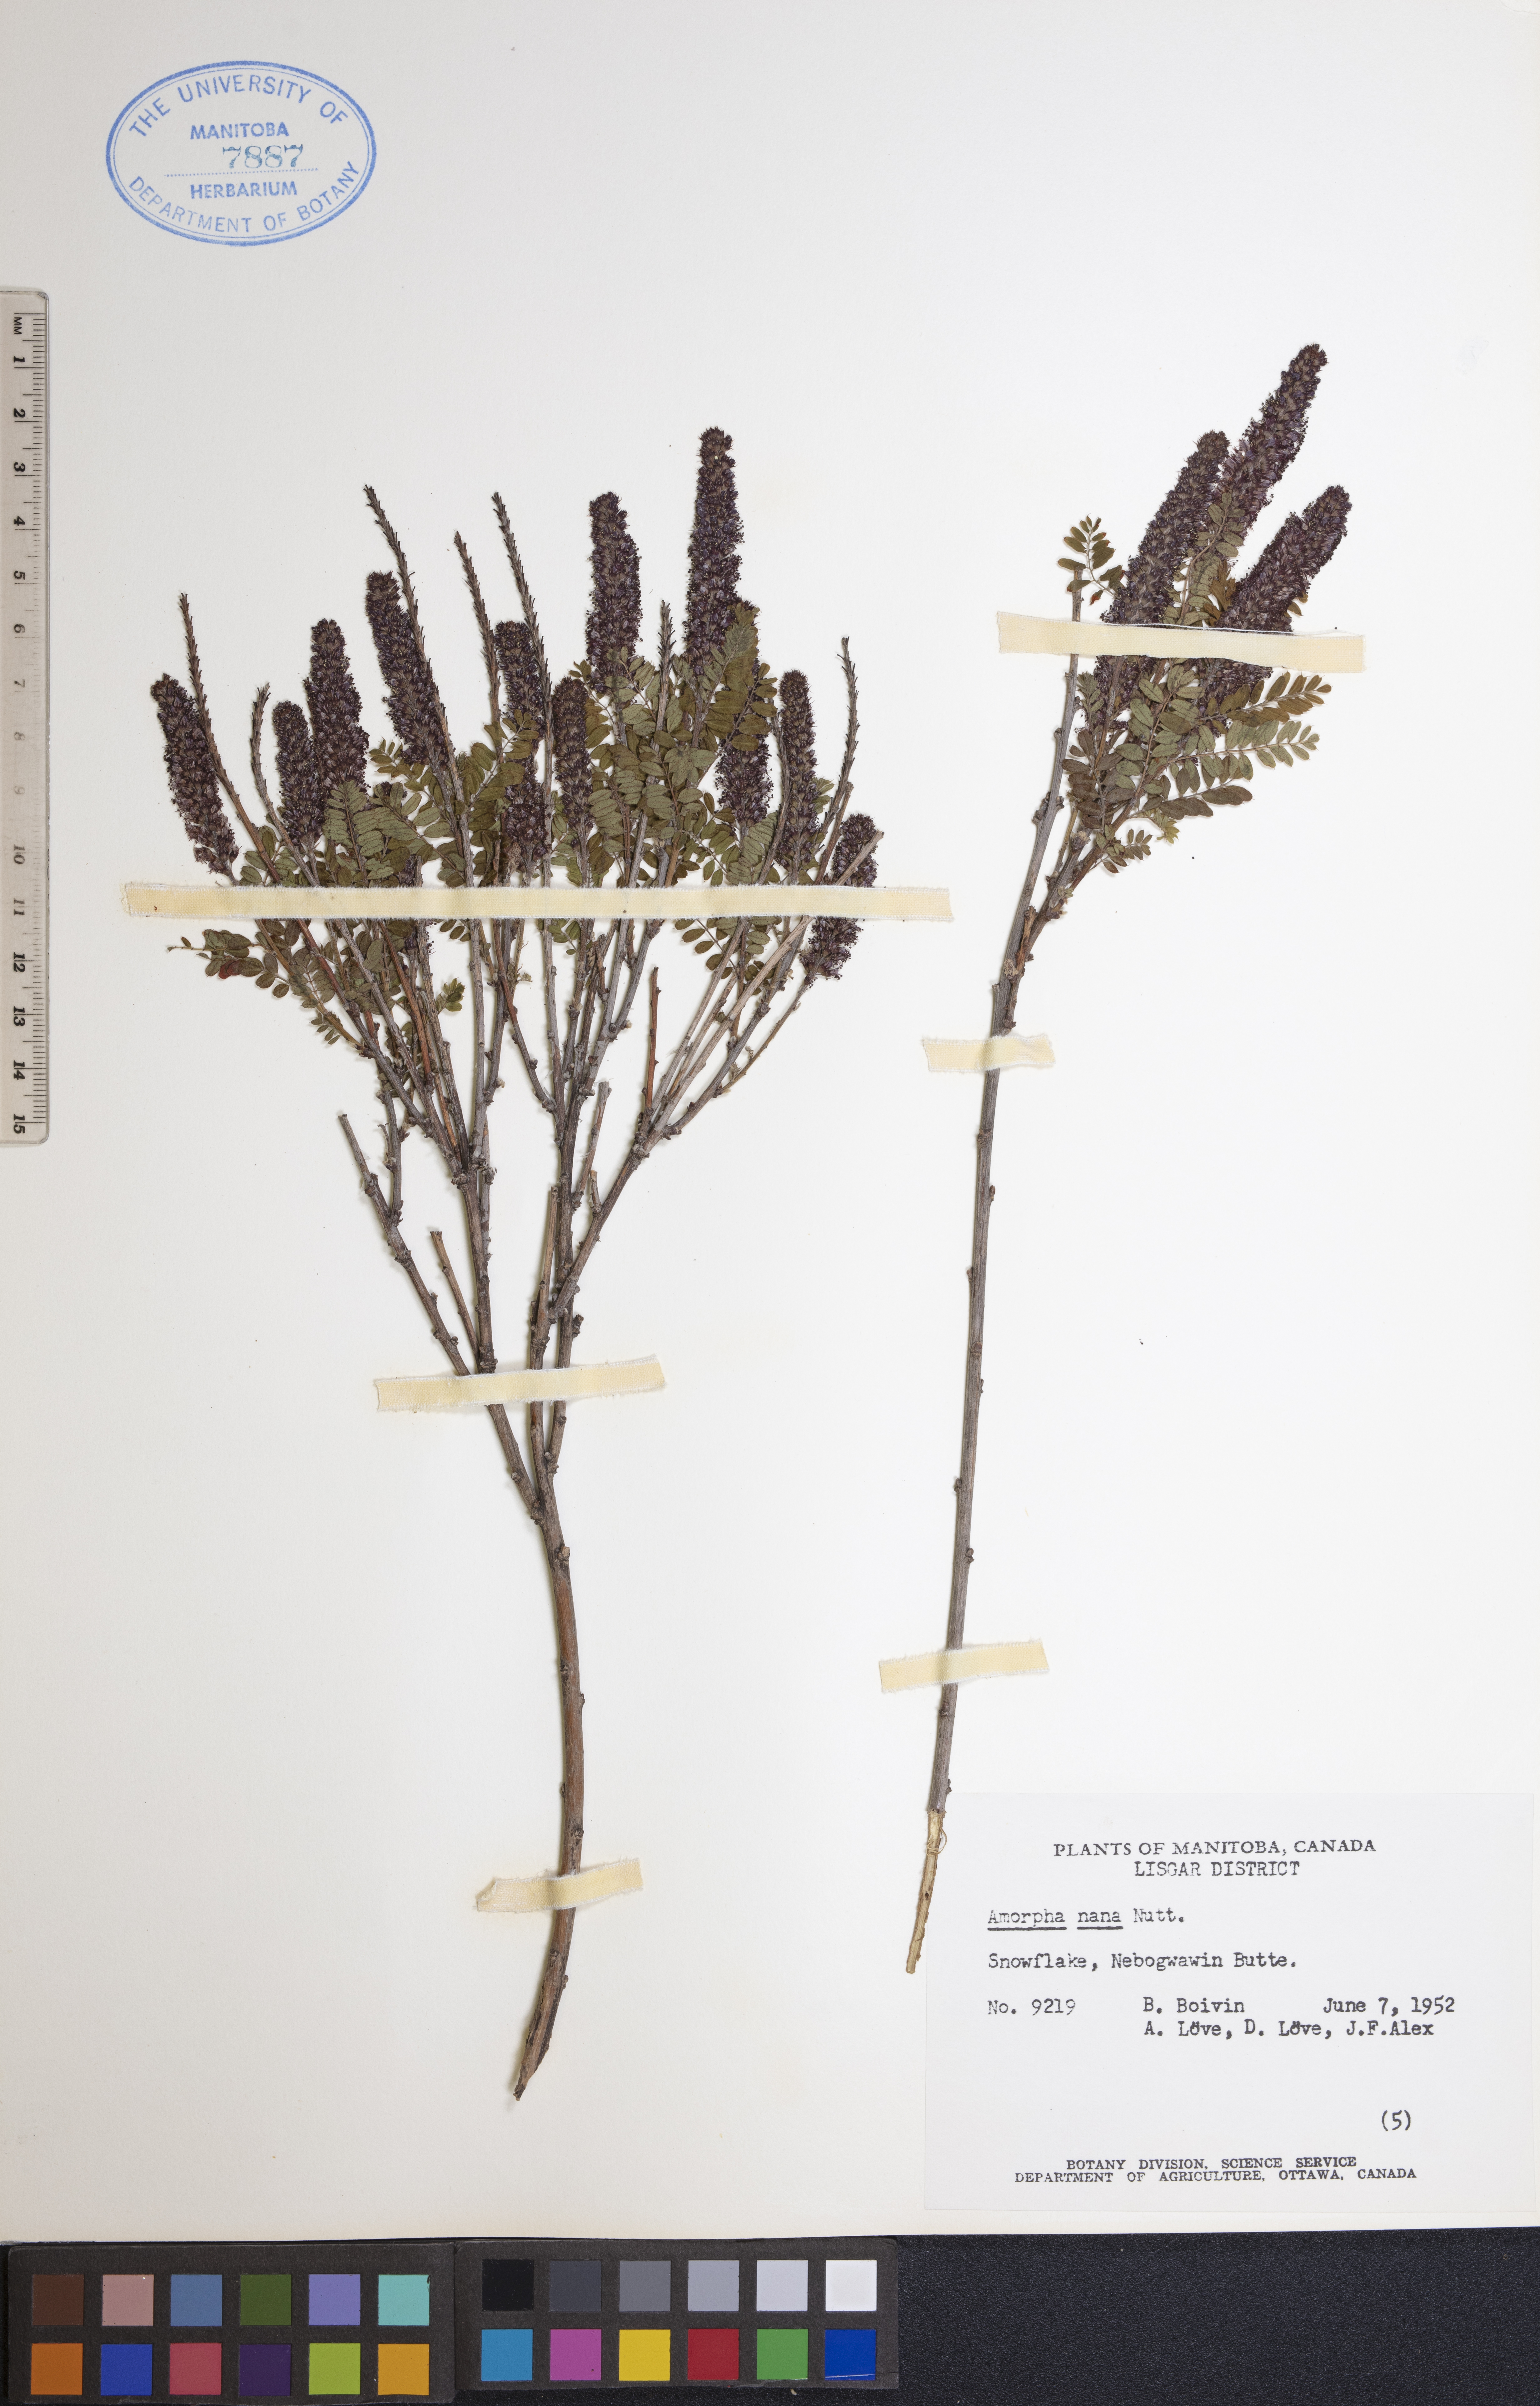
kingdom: Plantae
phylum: Tracheophyta
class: Magnoliopsida
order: Fabales
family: Fabaceae
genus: Amorpha
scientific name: Amorpha nana
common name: Fragrant false indigo
